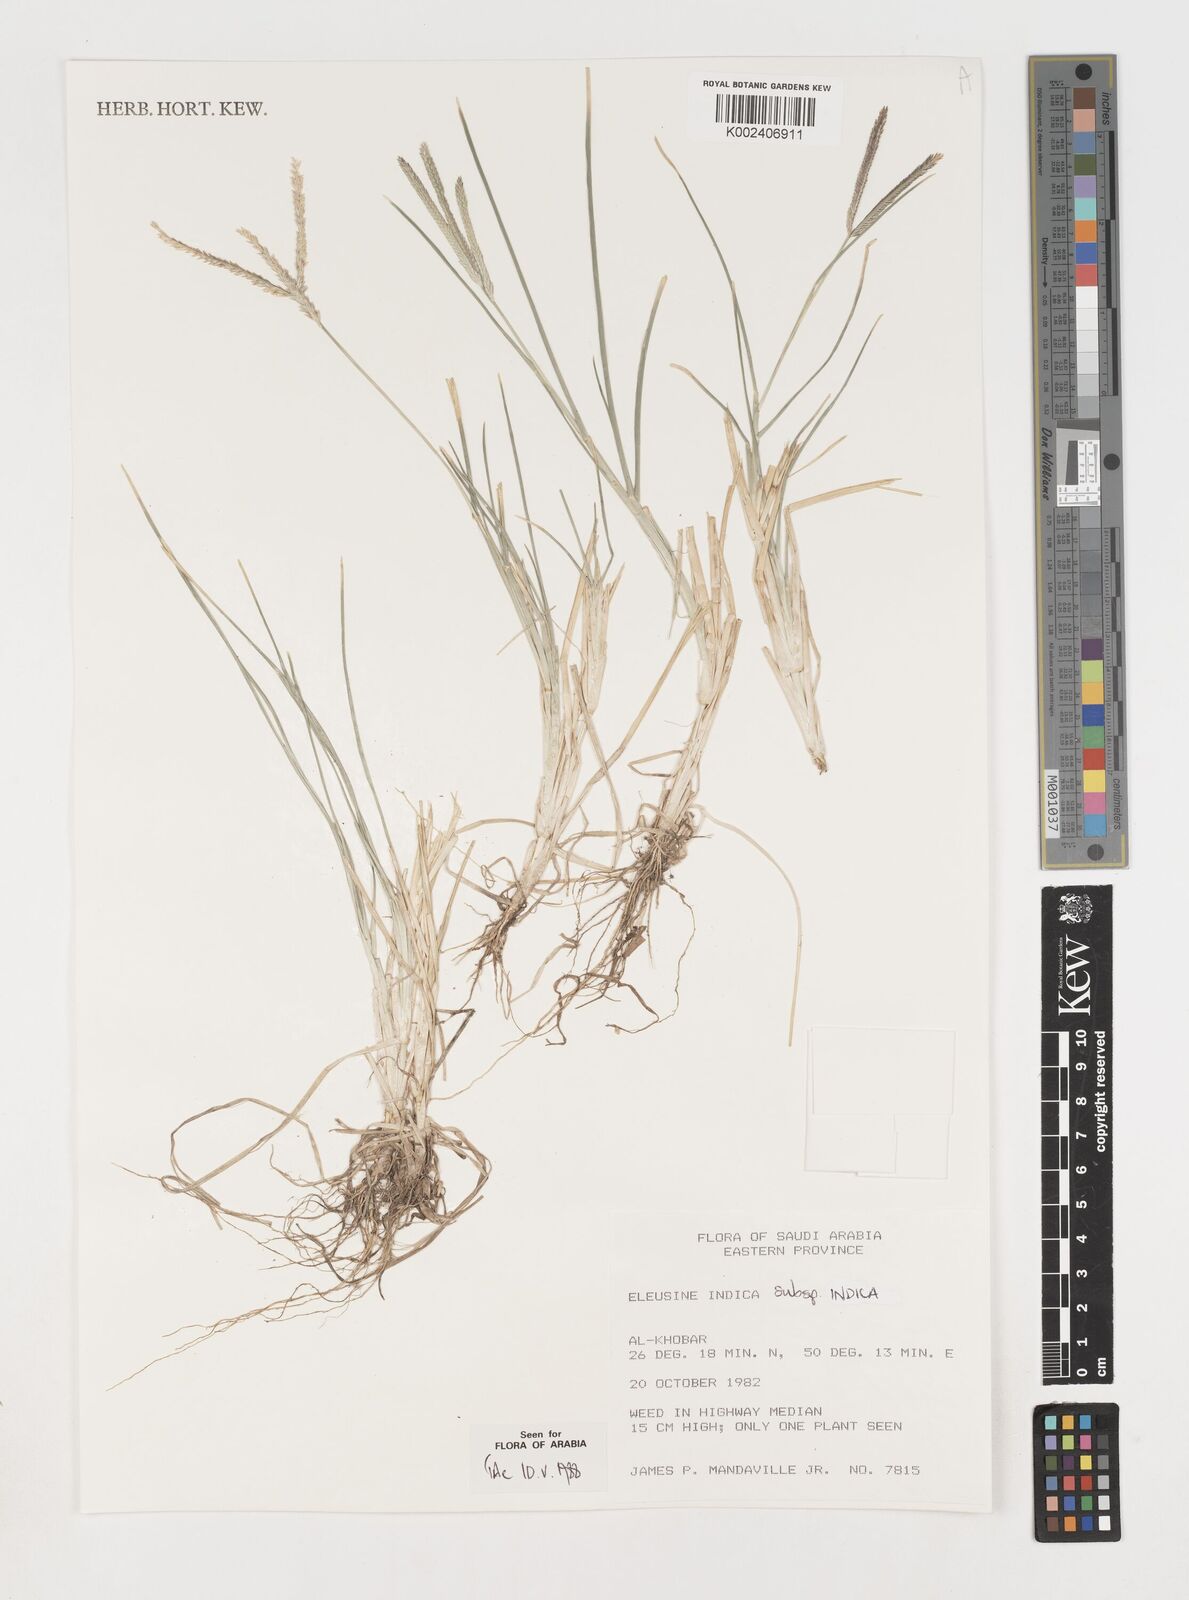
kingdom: Plantae
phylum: Tracheophyta
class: Liliopsida
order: Poales
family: Poaceae
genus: Eleusine
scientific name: Eleusine indica
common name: Yard-grass
